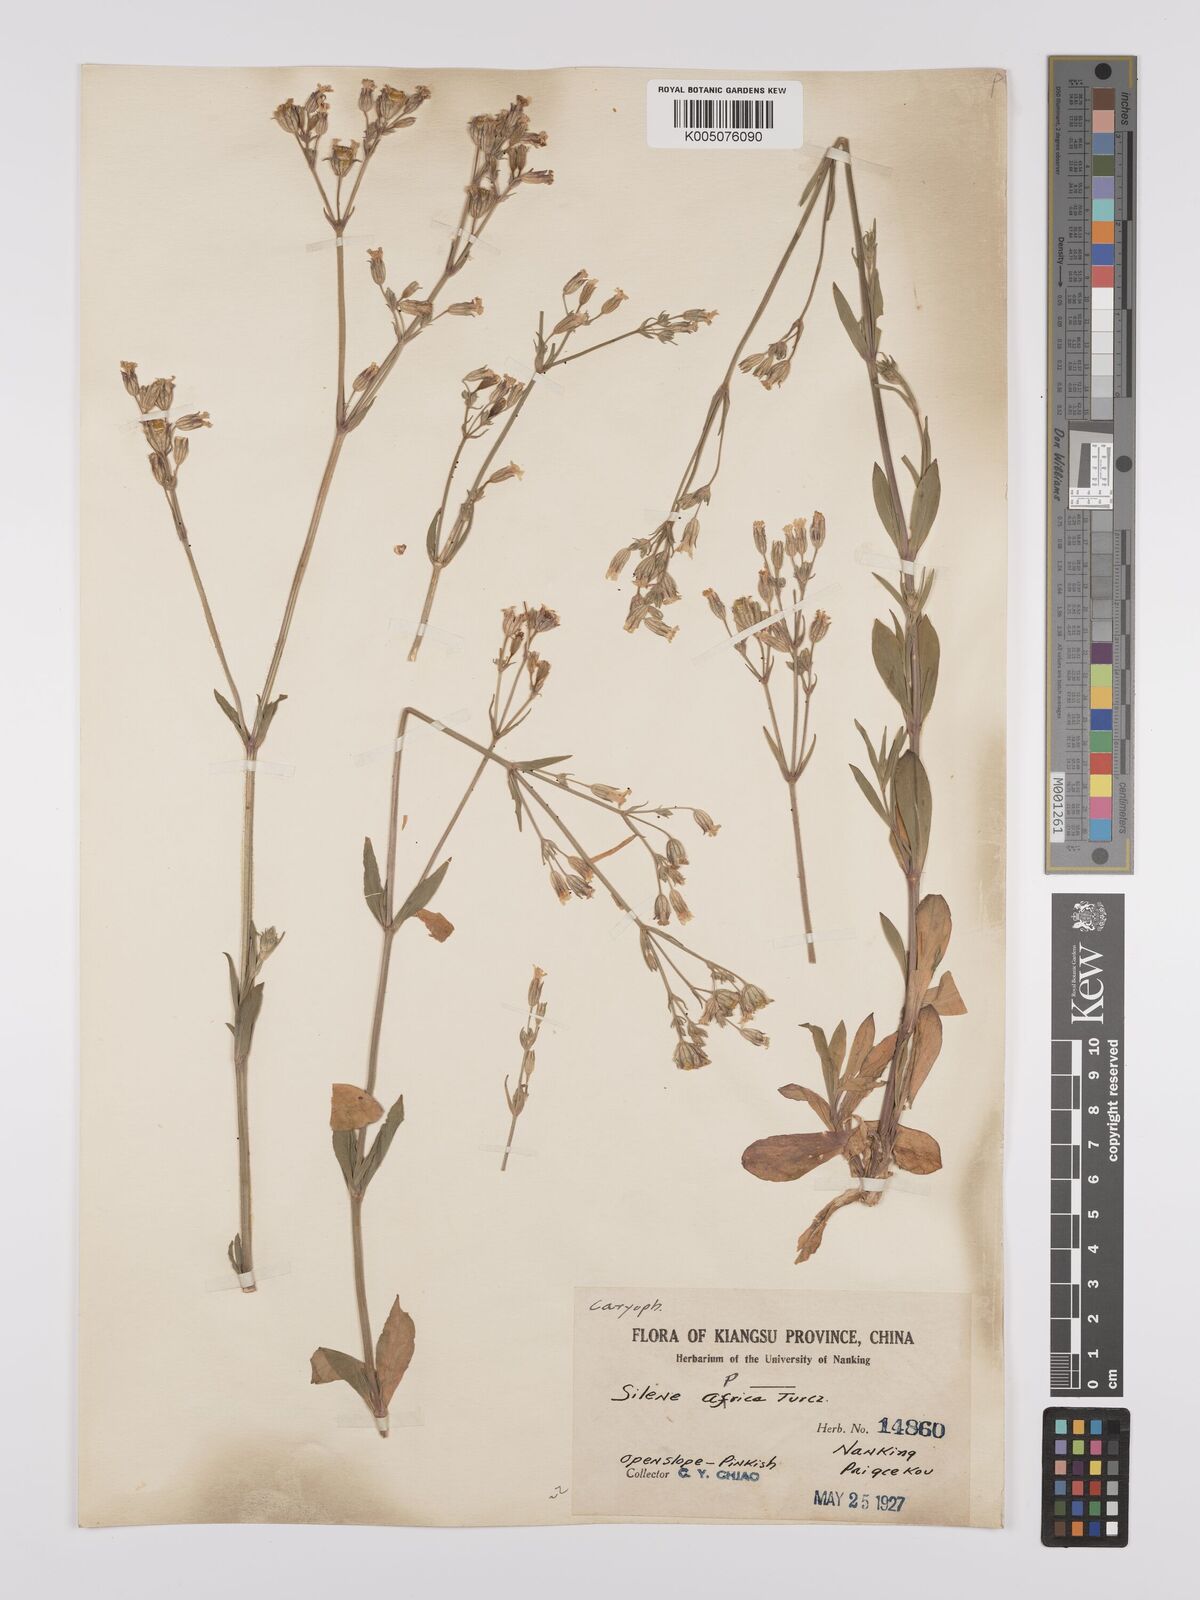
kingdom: Plantae
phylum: Tracheophyta
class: Magnoliopsida
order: Caryophyllales
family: Caryophyllaceae
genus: Silene
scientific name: Silene aprica
